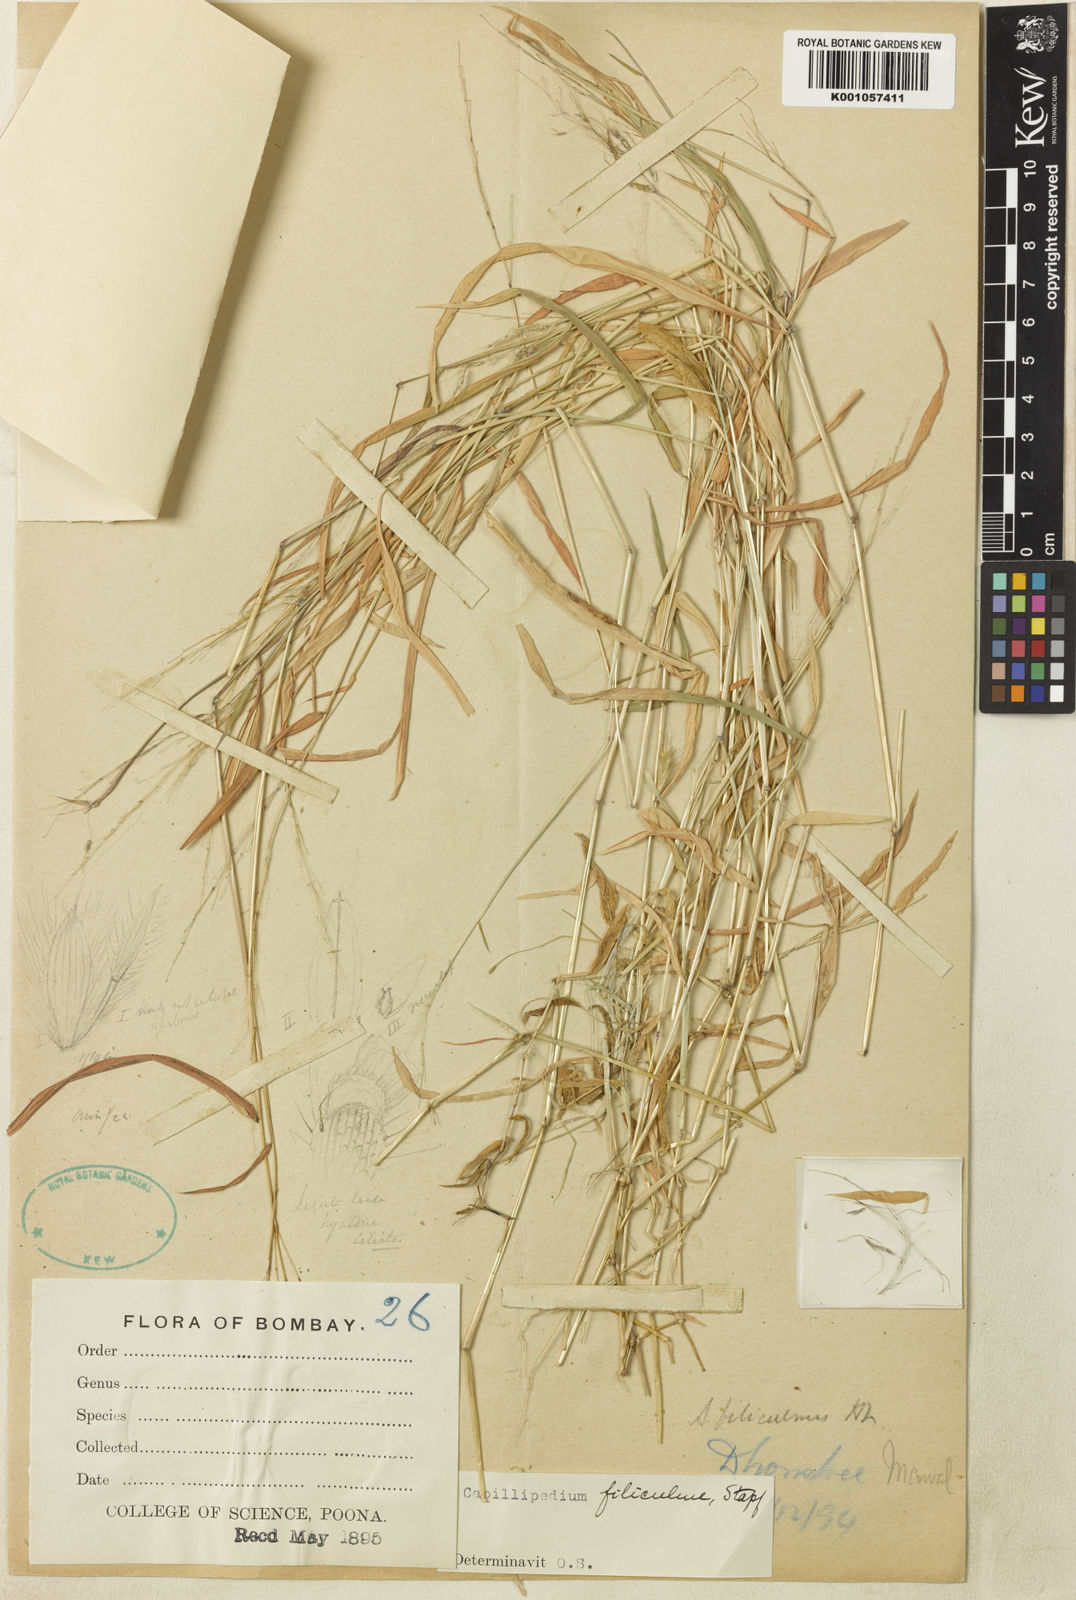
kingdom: Plantae
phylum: Tracheophyta
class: Liliopsida
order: Poales
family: Poaceae
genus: Capillipedium
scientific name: Capillipedium filiculme
